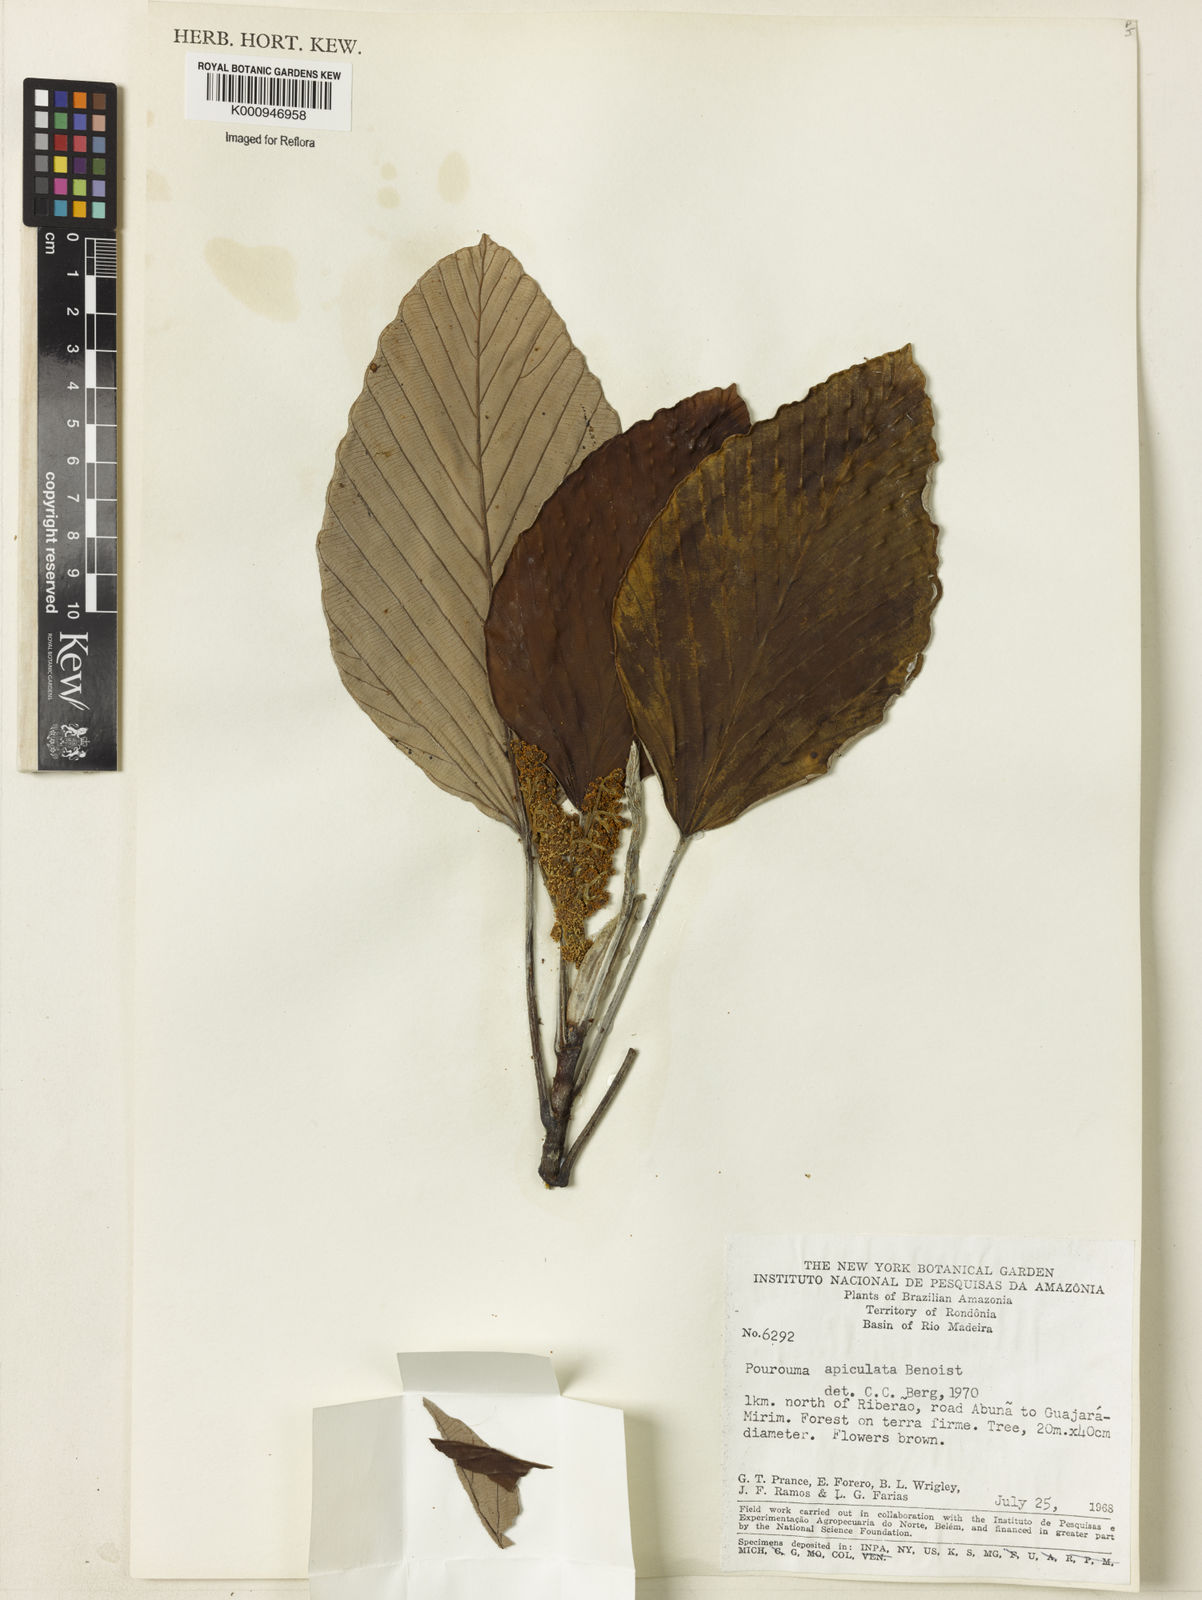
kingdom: Plantae
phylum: Tracheophyta
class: Magnoliopsida
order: Rosales
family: Urticaceae
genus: Pourouma
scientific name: Pourouma tomentosa
